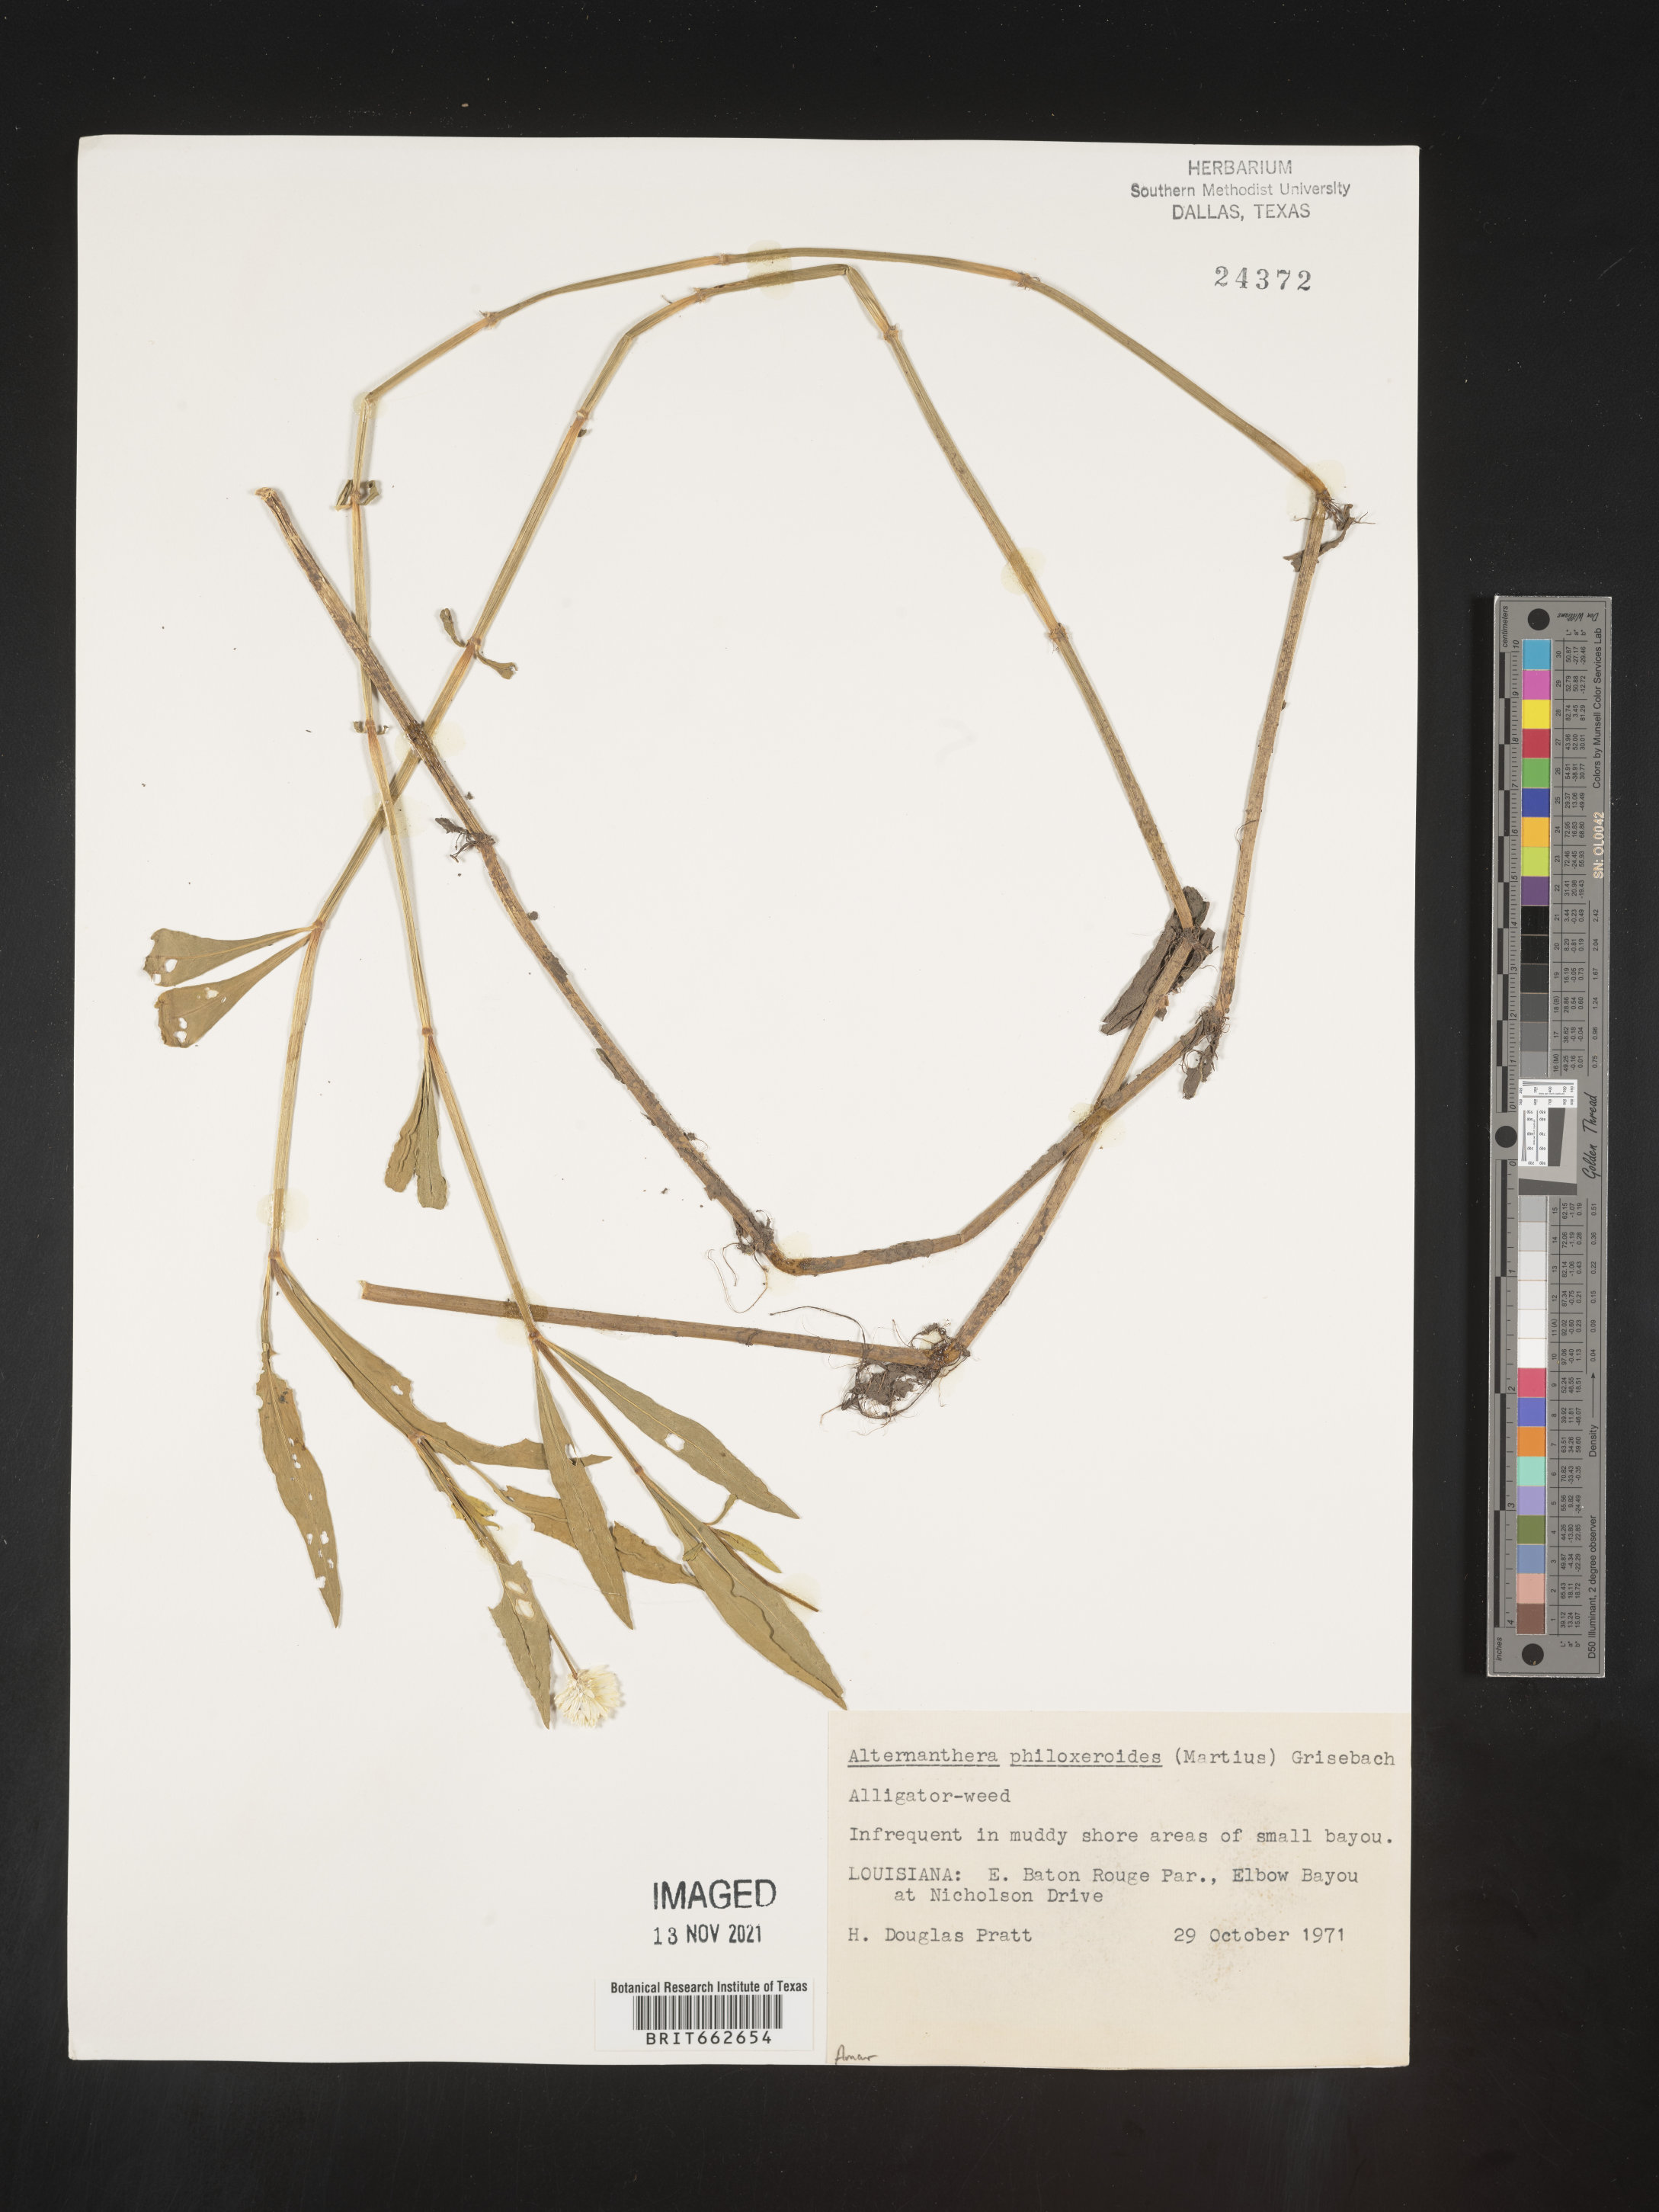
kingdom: Plantae
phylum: Tracheophyta
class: Magnoliopsida
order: Caryophyllales
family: Amaranthaceae
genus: Alternanthera
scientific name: Alternanthera philoxeroides
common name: Alligatorweed
